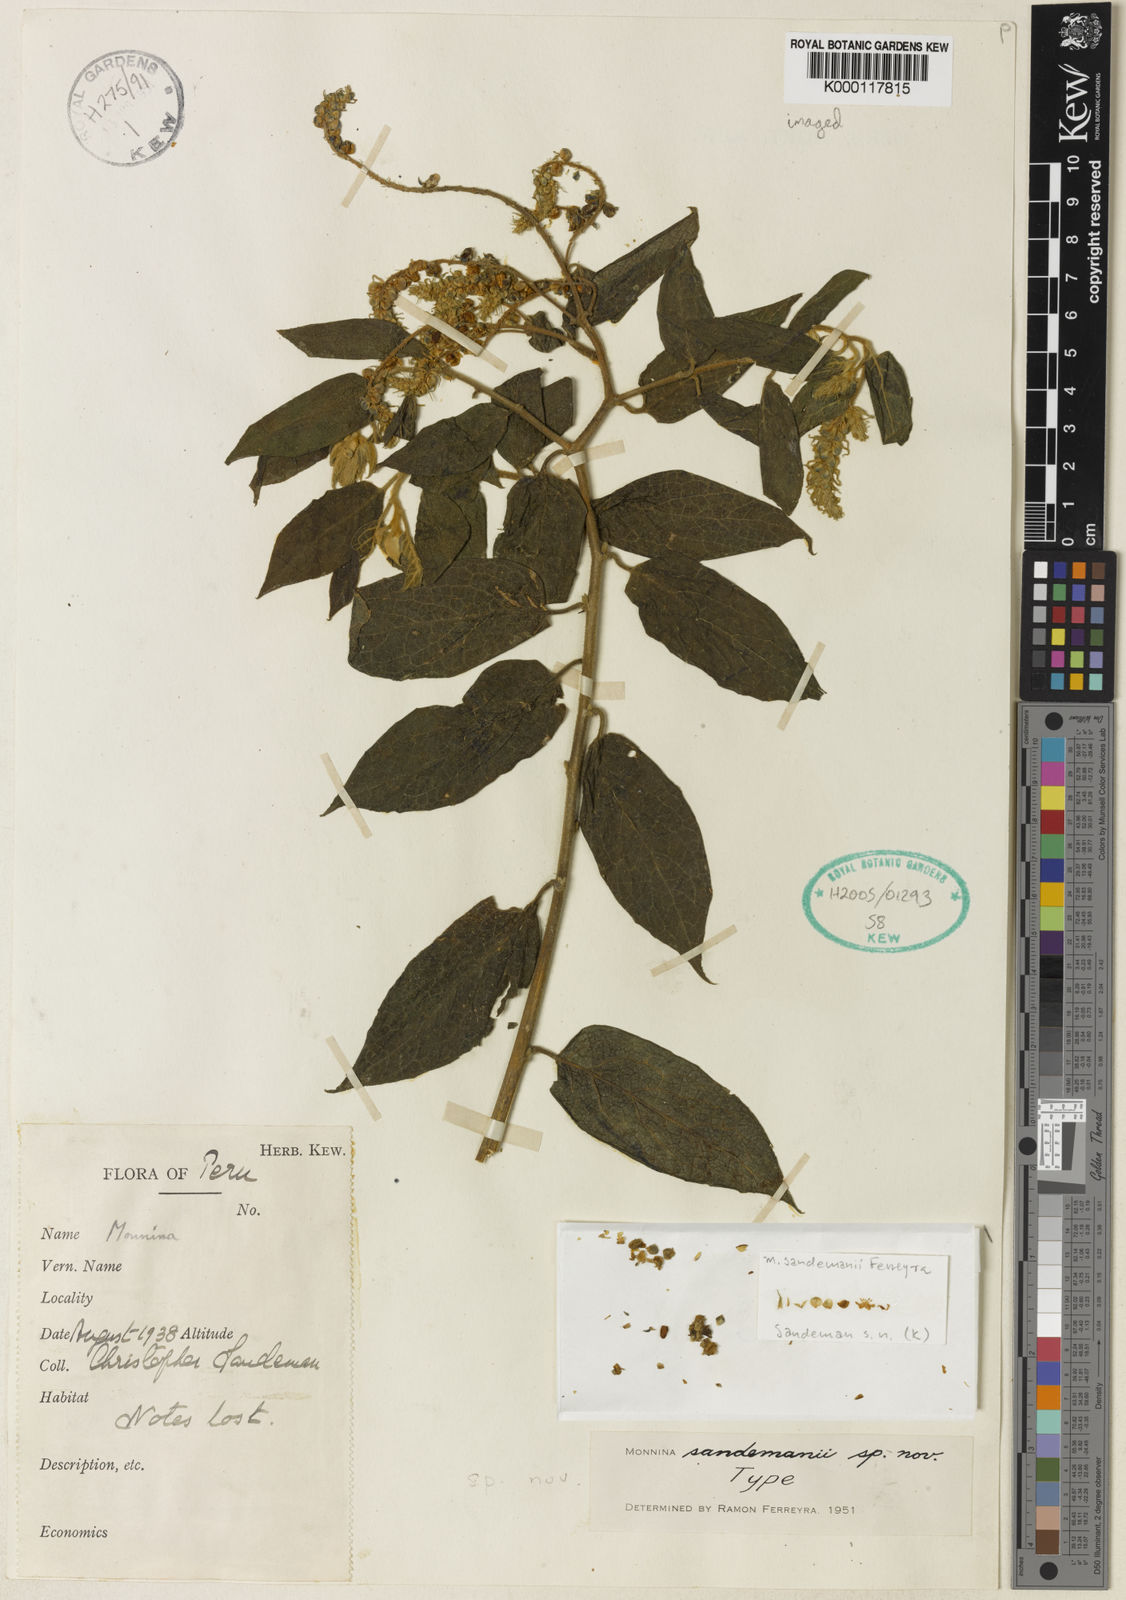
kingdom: Plantae
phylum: Tracheophyta
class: Magnoliopsida
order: Fabales
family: Polygalaceae
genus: Monnina
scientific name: Monnina sandemanii
